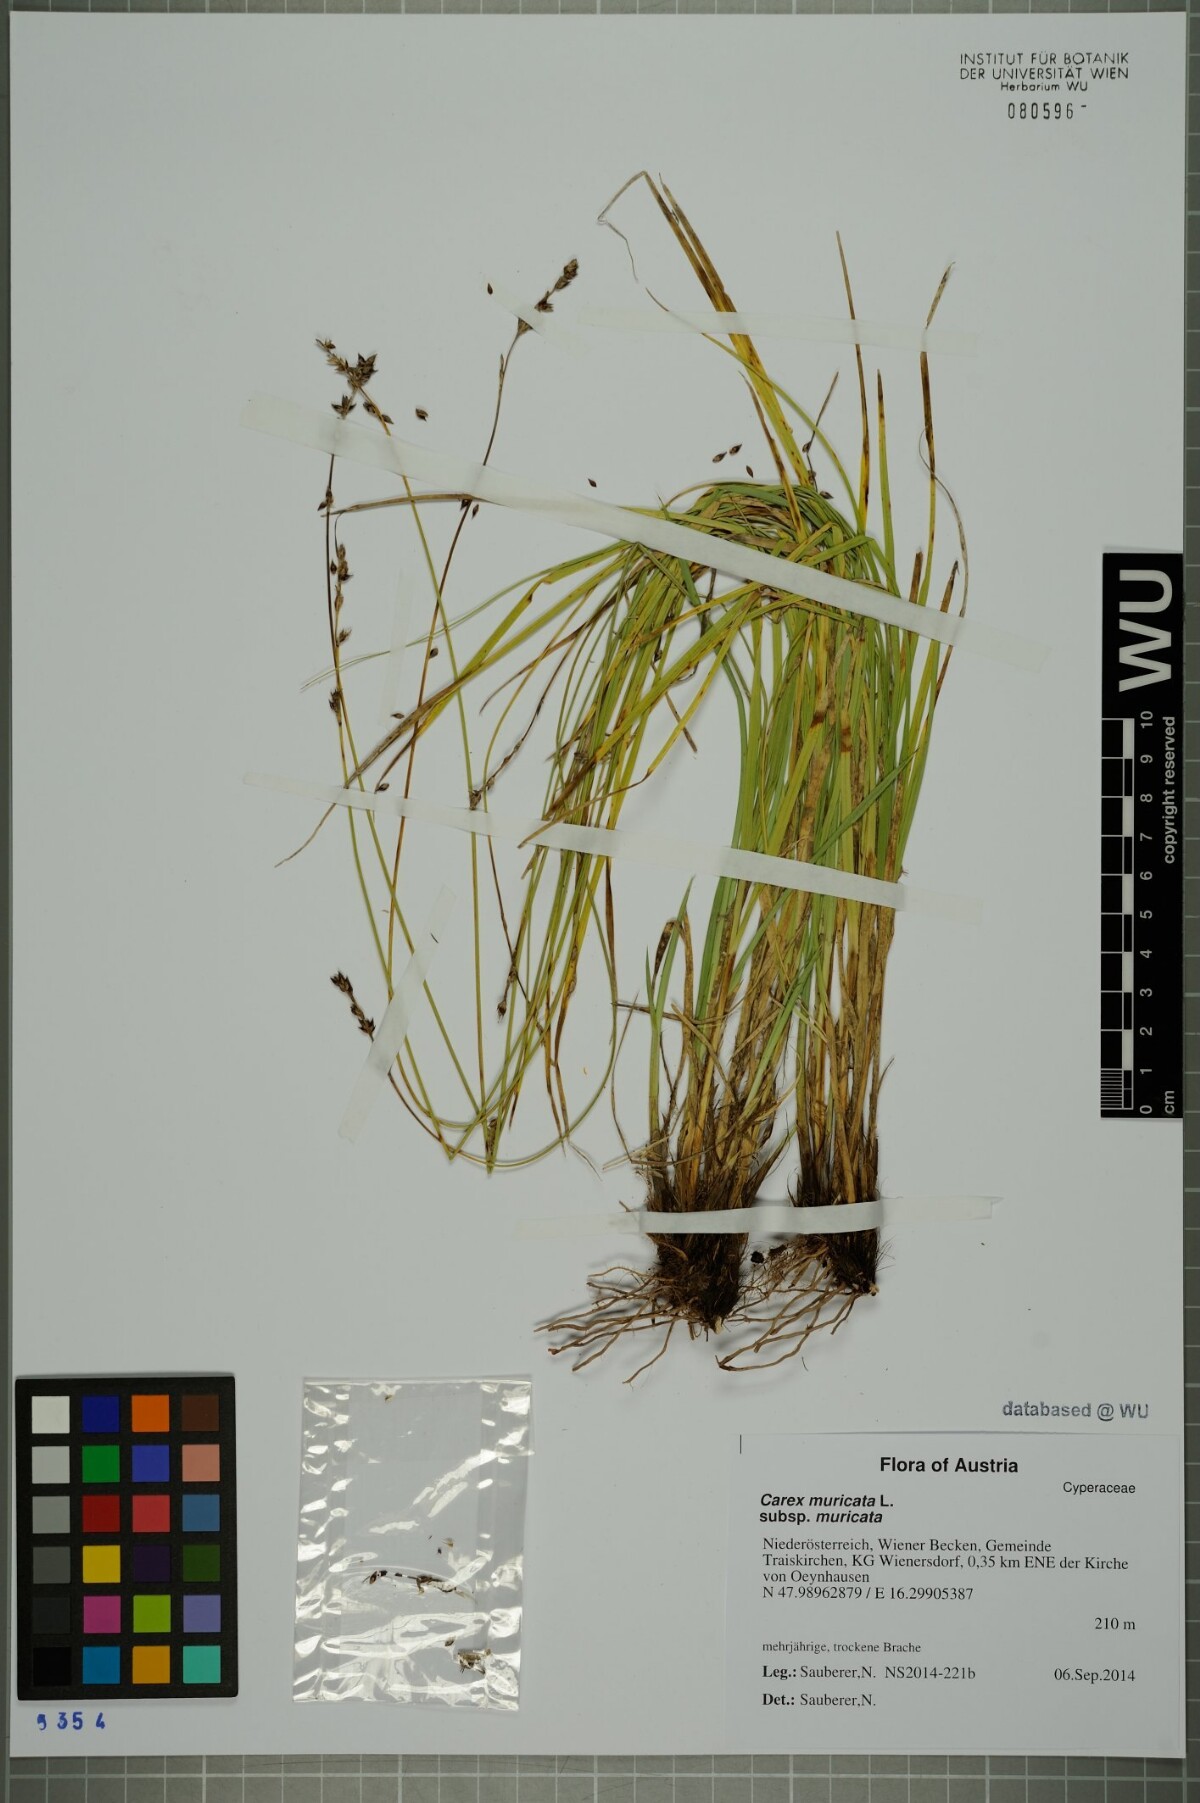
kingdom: Plantae
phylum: Tracheophyta
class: Liliopsida
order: Poales
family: Cyperaceae
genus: Carex
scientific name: Carex muricata
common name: Rough sedge
